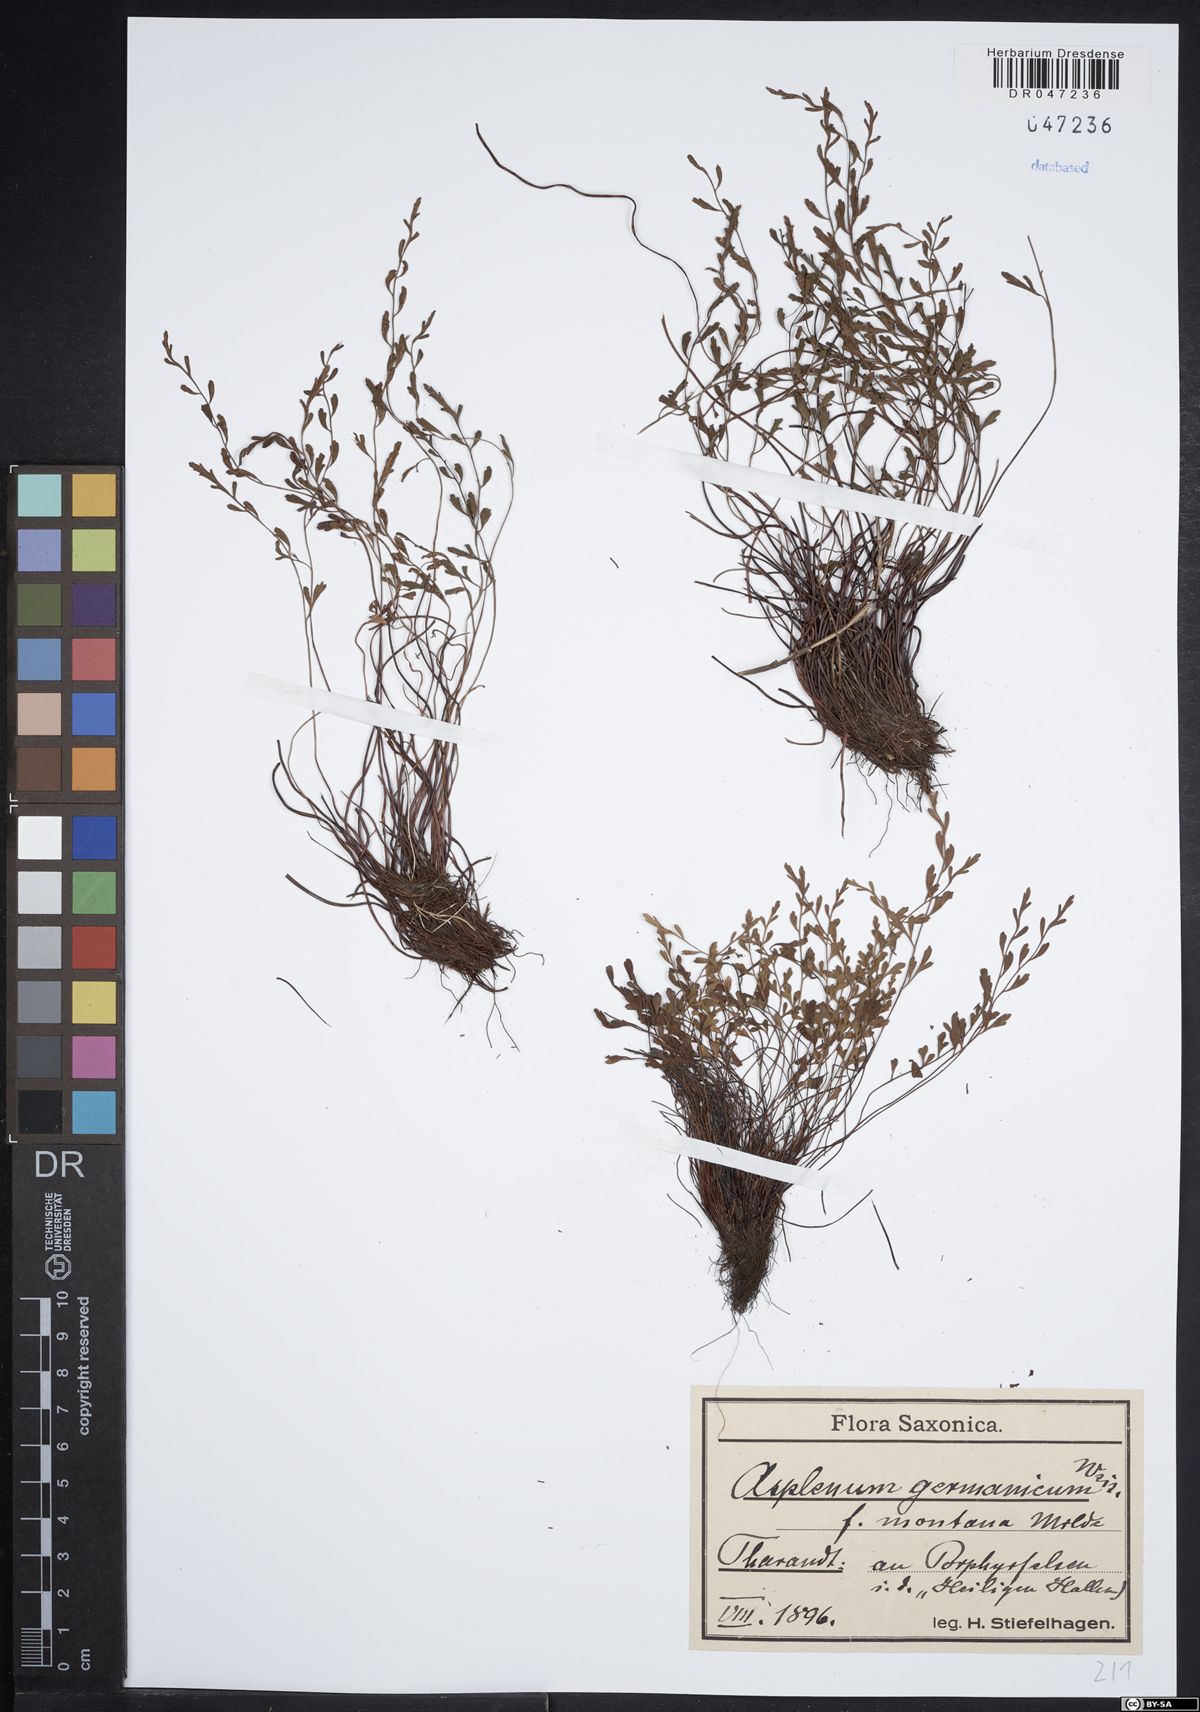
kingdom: Plantae
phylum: Tracheophyta
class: Polypodiopsida
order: Polypodiales
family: Aspleniaceae
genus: Asplenium
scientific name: Asplenium
